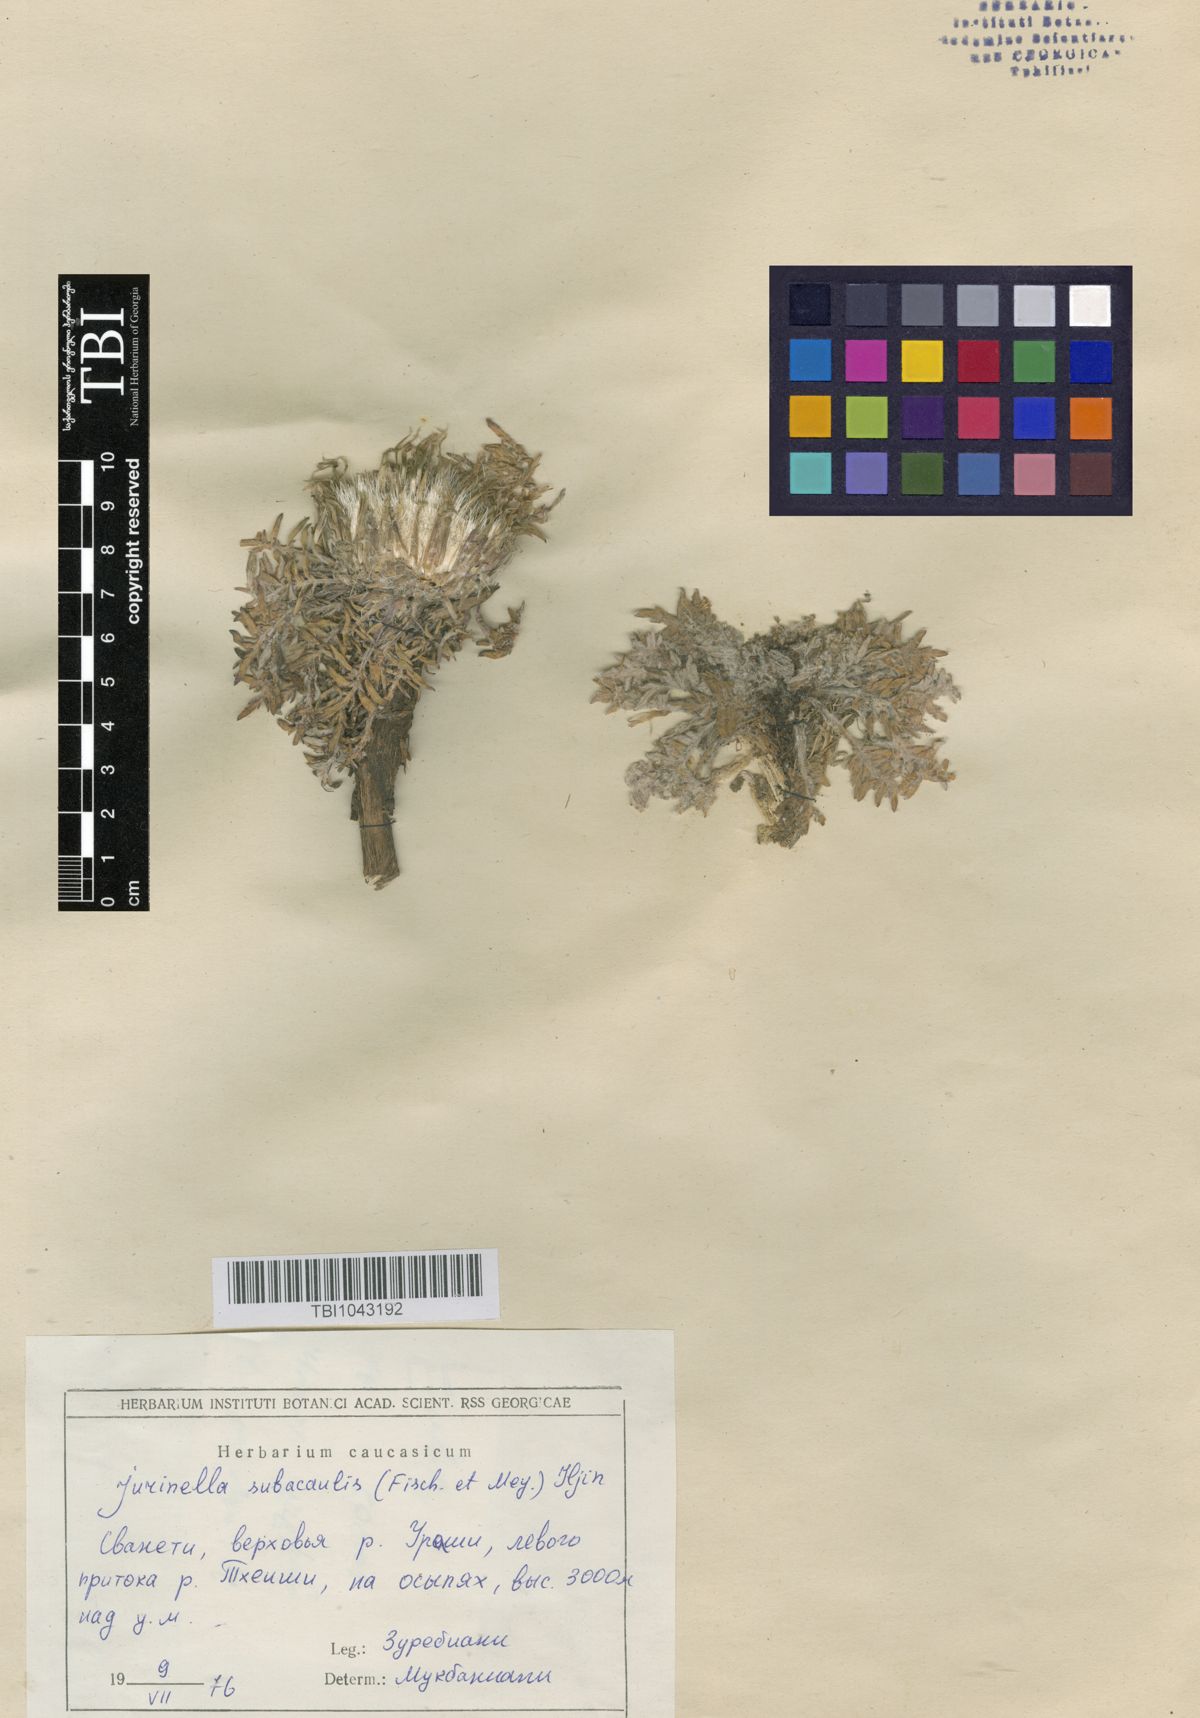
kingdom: Plantae
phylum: Tracheophyta
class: Magnoliopsida
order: Asterales
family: Asteraceae
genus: Jurinea
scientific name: Jurinea moschus
